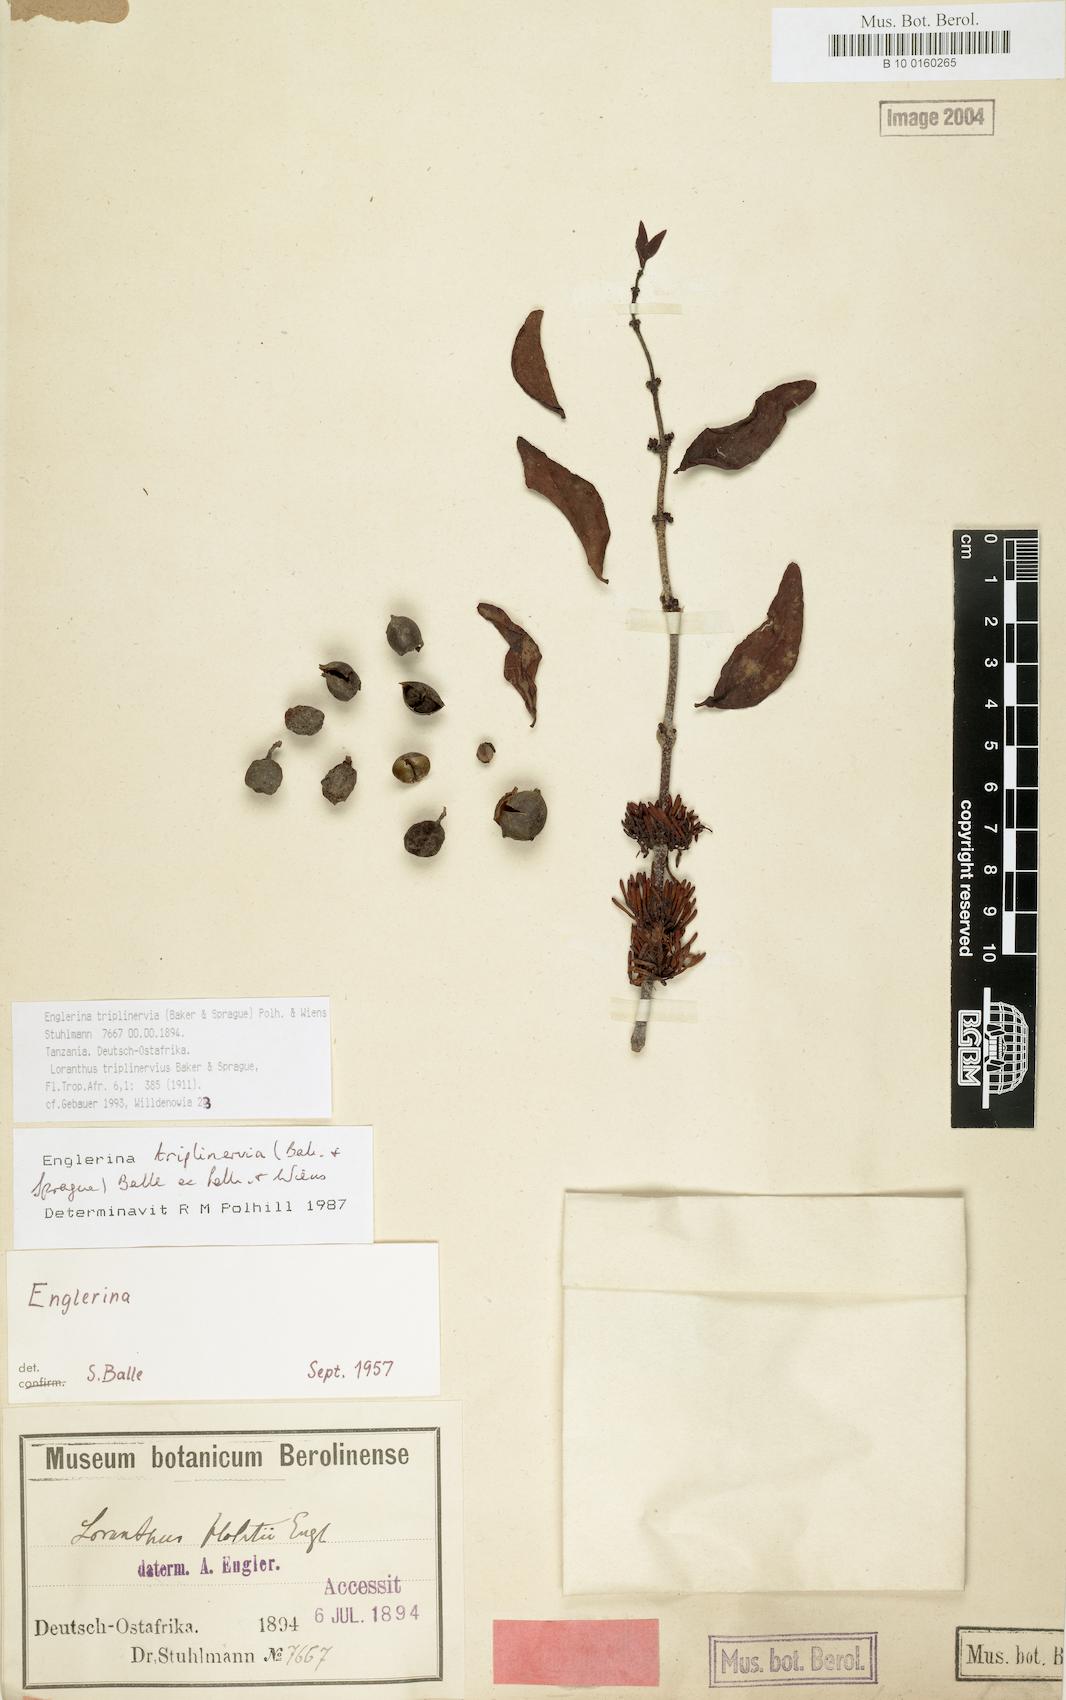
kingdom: Plantae
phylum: Tracheophyta
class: Magnoliopsida
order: Santalales
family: Loranthaceae
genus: Englerina
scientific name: Englerina triplinervia
